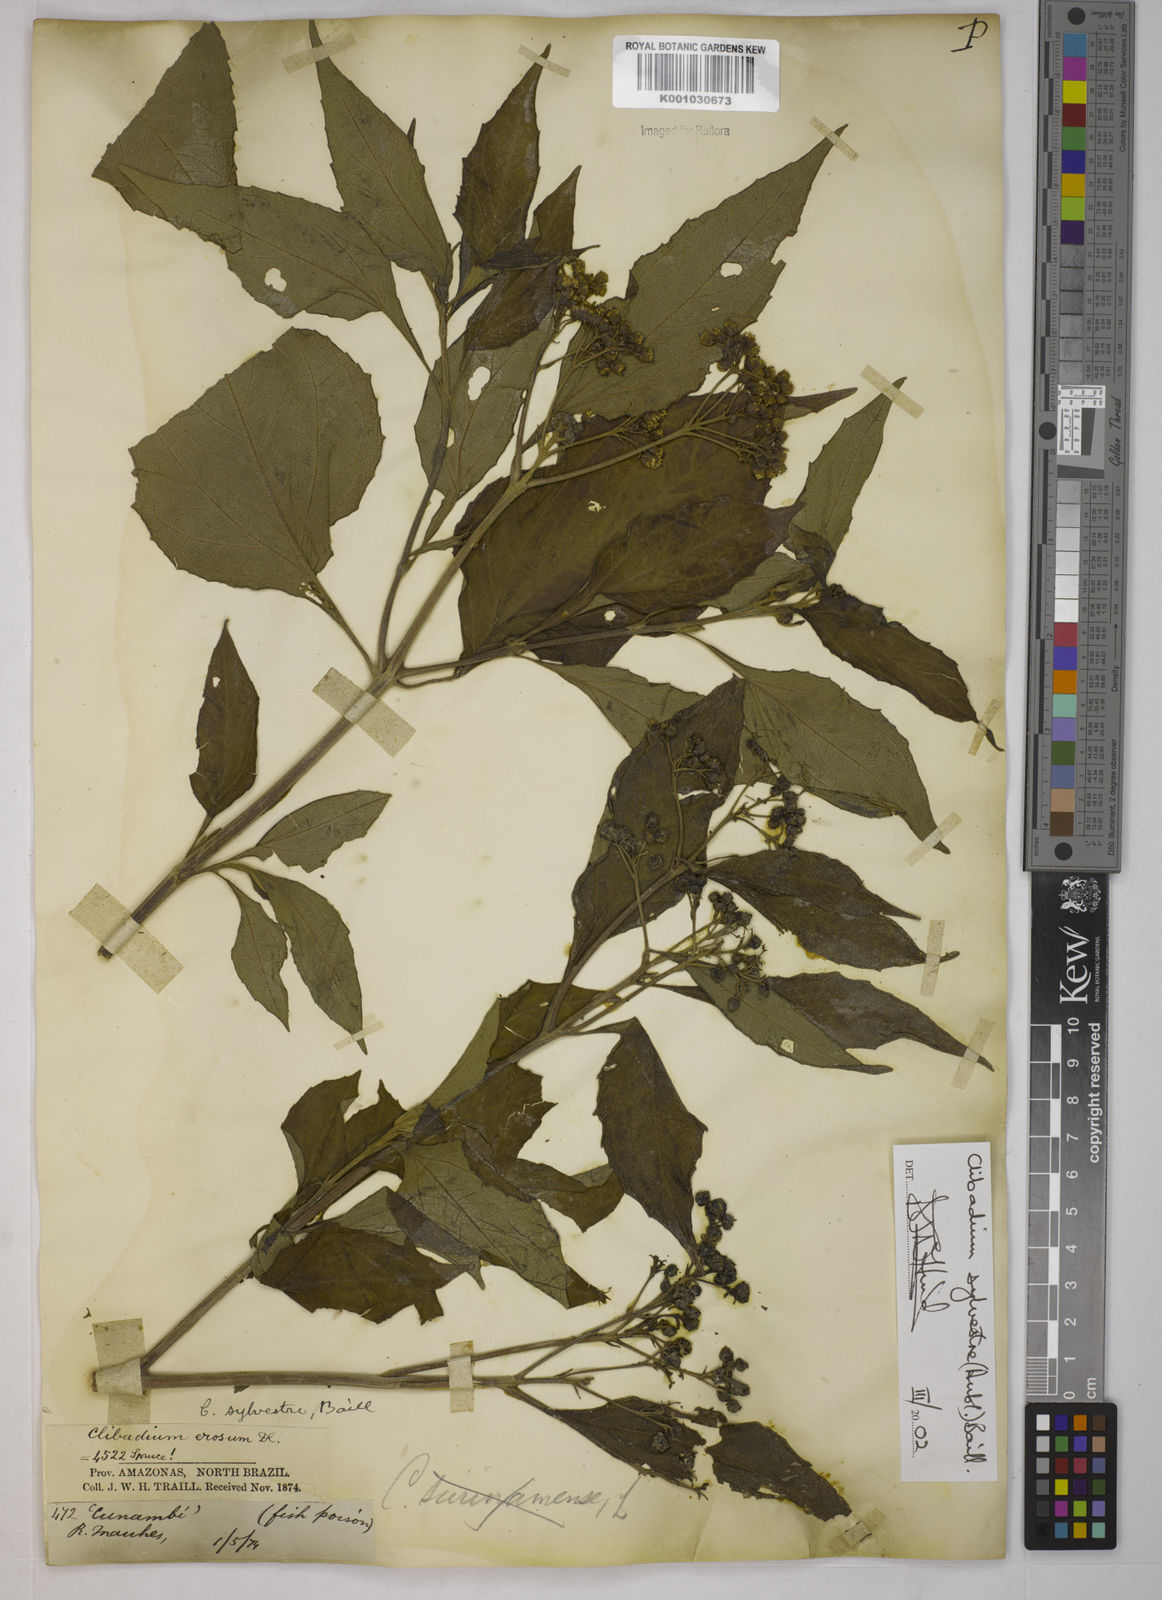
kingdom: Plantae
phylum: Tracheophyta
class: Magnoliopsida
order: Asterales
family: Asteraceae
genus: Clibadium
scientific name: Clibadium sylvestre
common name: Barbasco
